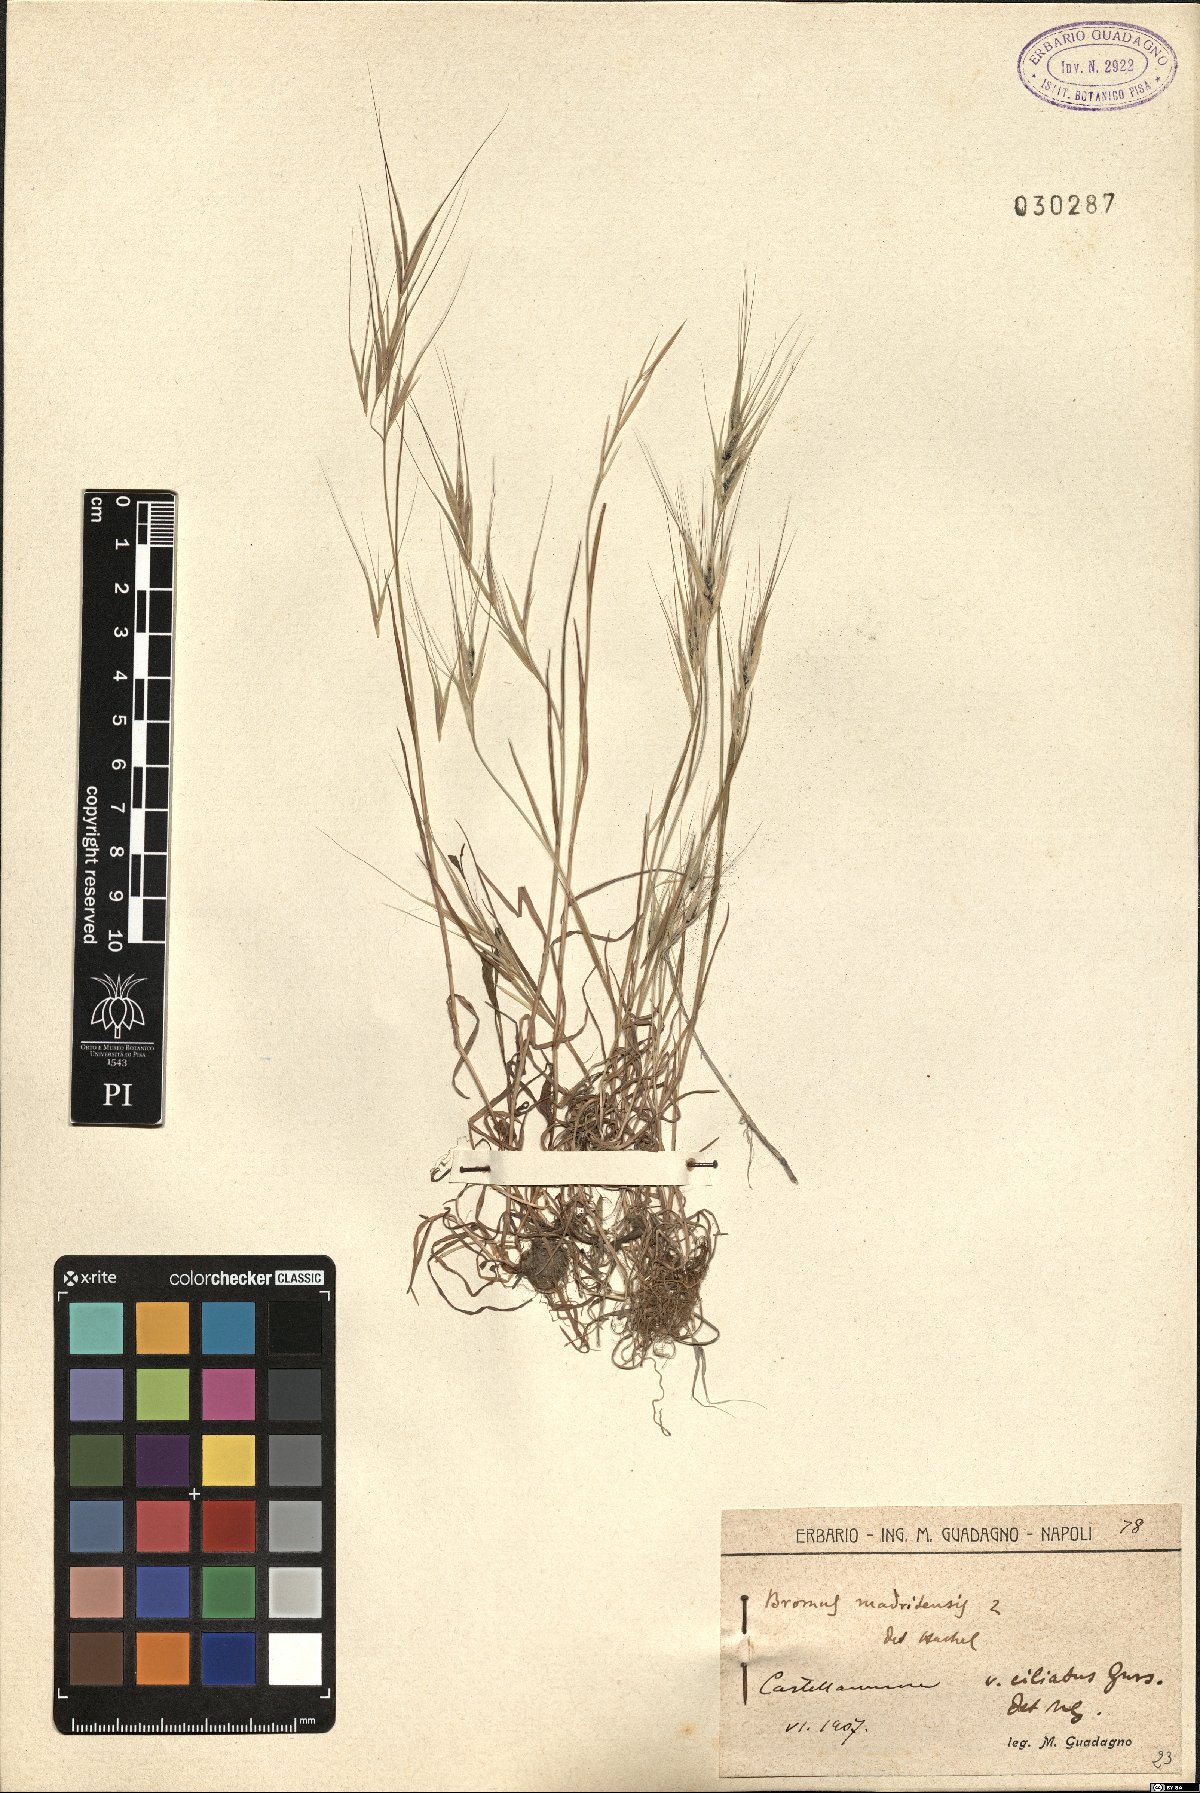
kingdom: Plantae
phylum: Tracheophyta
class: Liliopsida
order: Poales
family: Poaceae
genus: Bromus
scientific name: Bromus madritensis
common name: Compact brome
